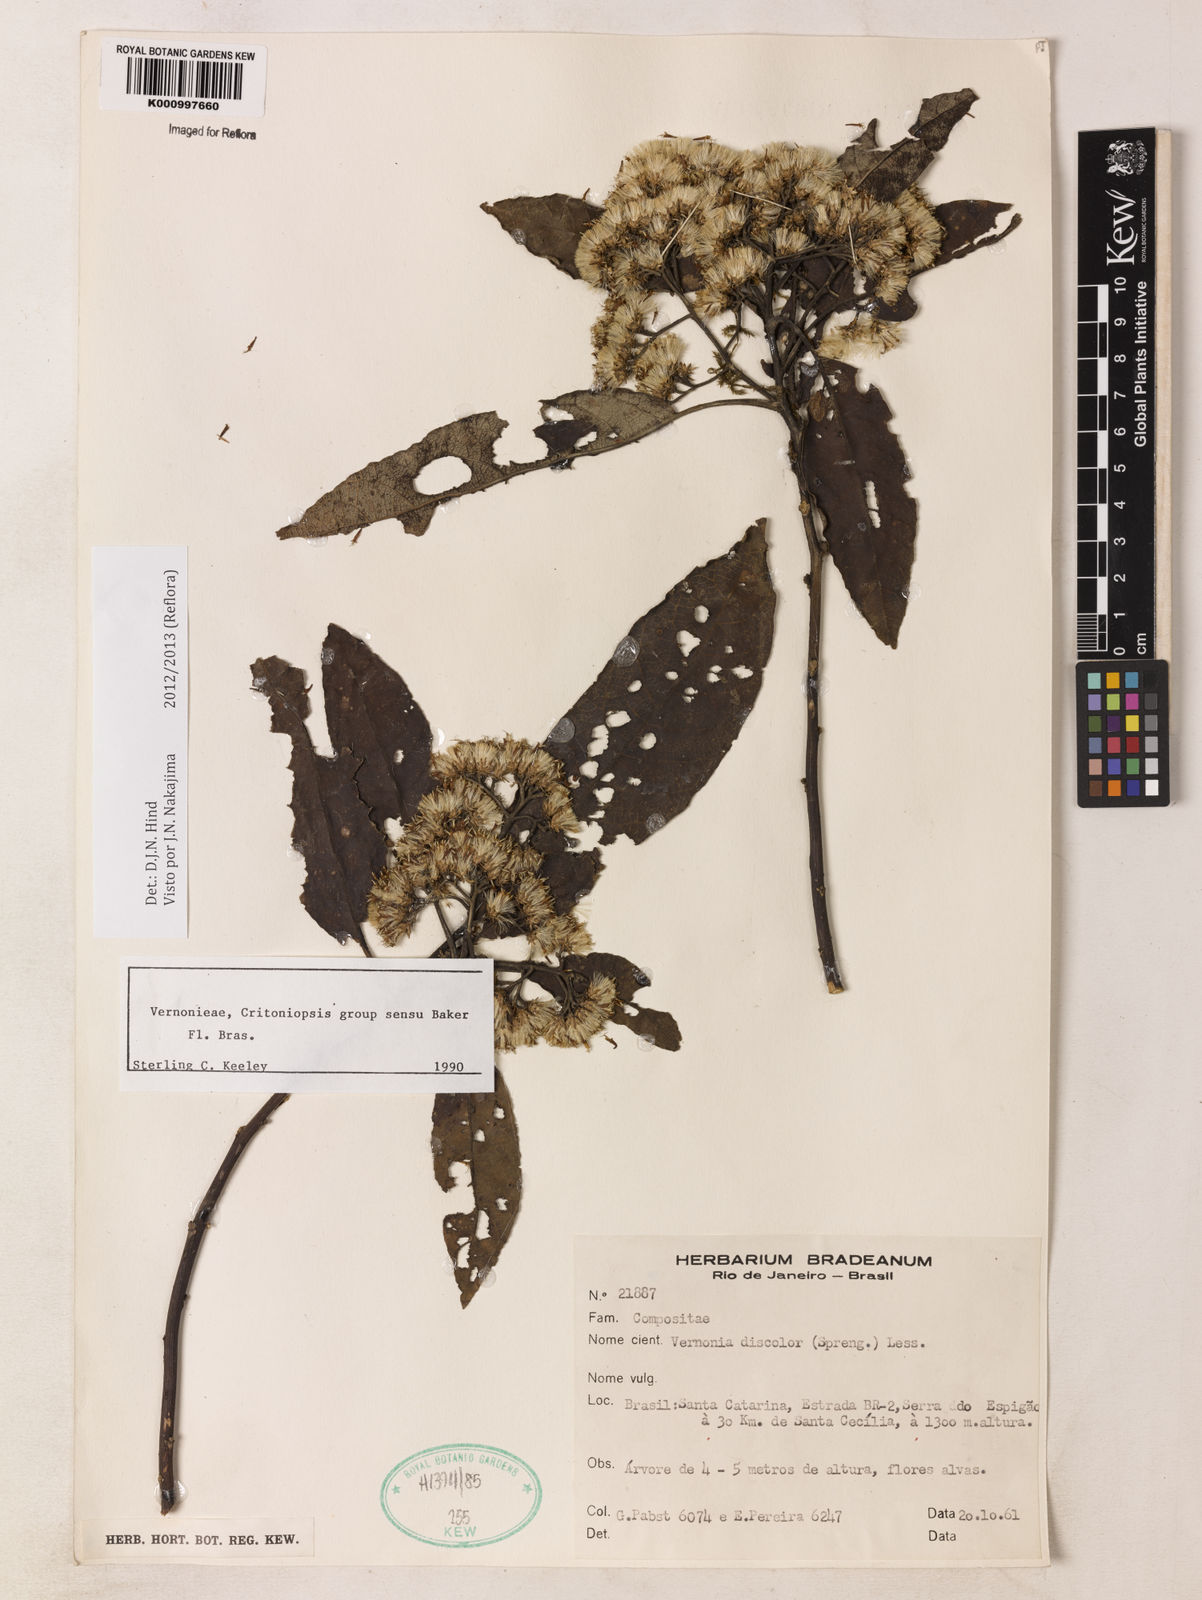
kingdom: Plantae
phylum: Tracheophyta
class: Magnoliopsida
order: Asterales
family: Asteraceae
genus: Vernonanthura
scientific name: Vernonanthura discolor
